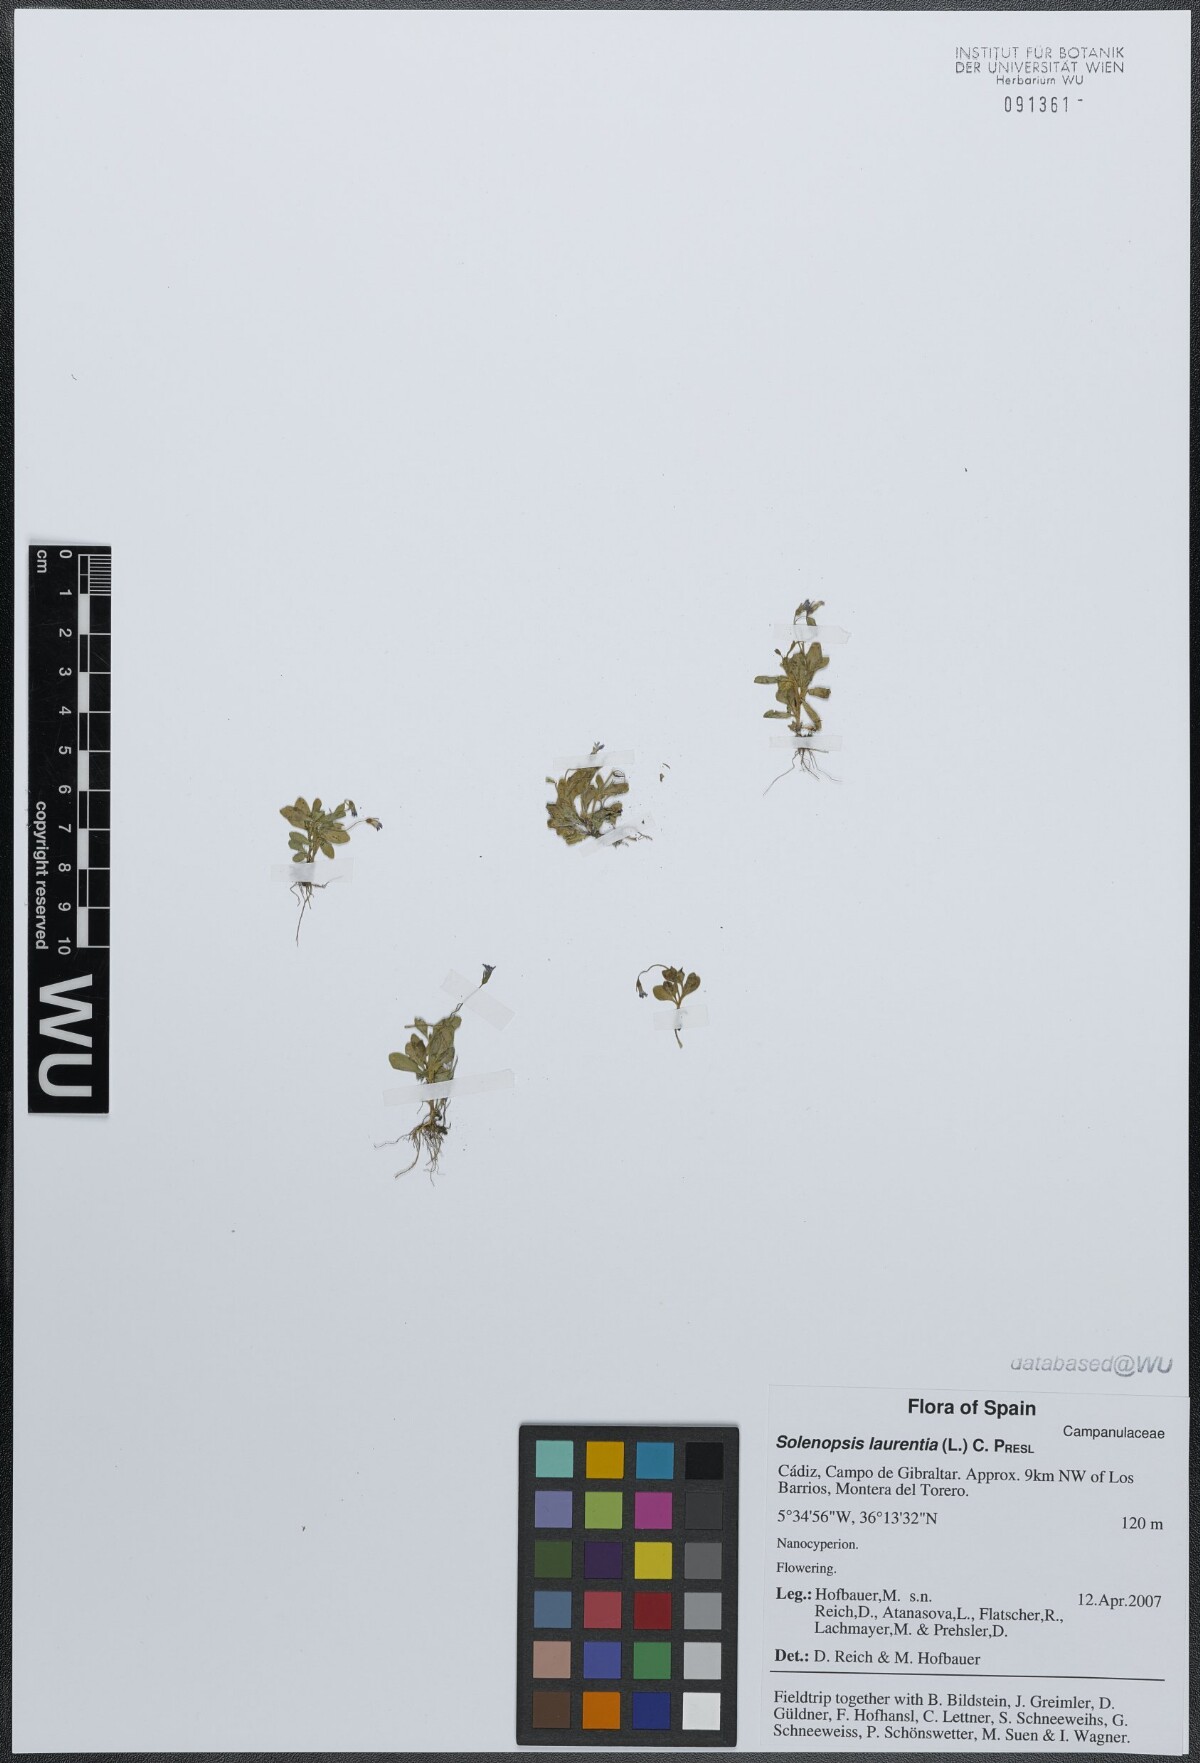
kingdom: Plantae
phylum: Tracheophyta
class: Magnoliopsida
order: Asterales
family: Campanulaceae
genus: Solenopsis
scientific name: Solenopsis laurentia
